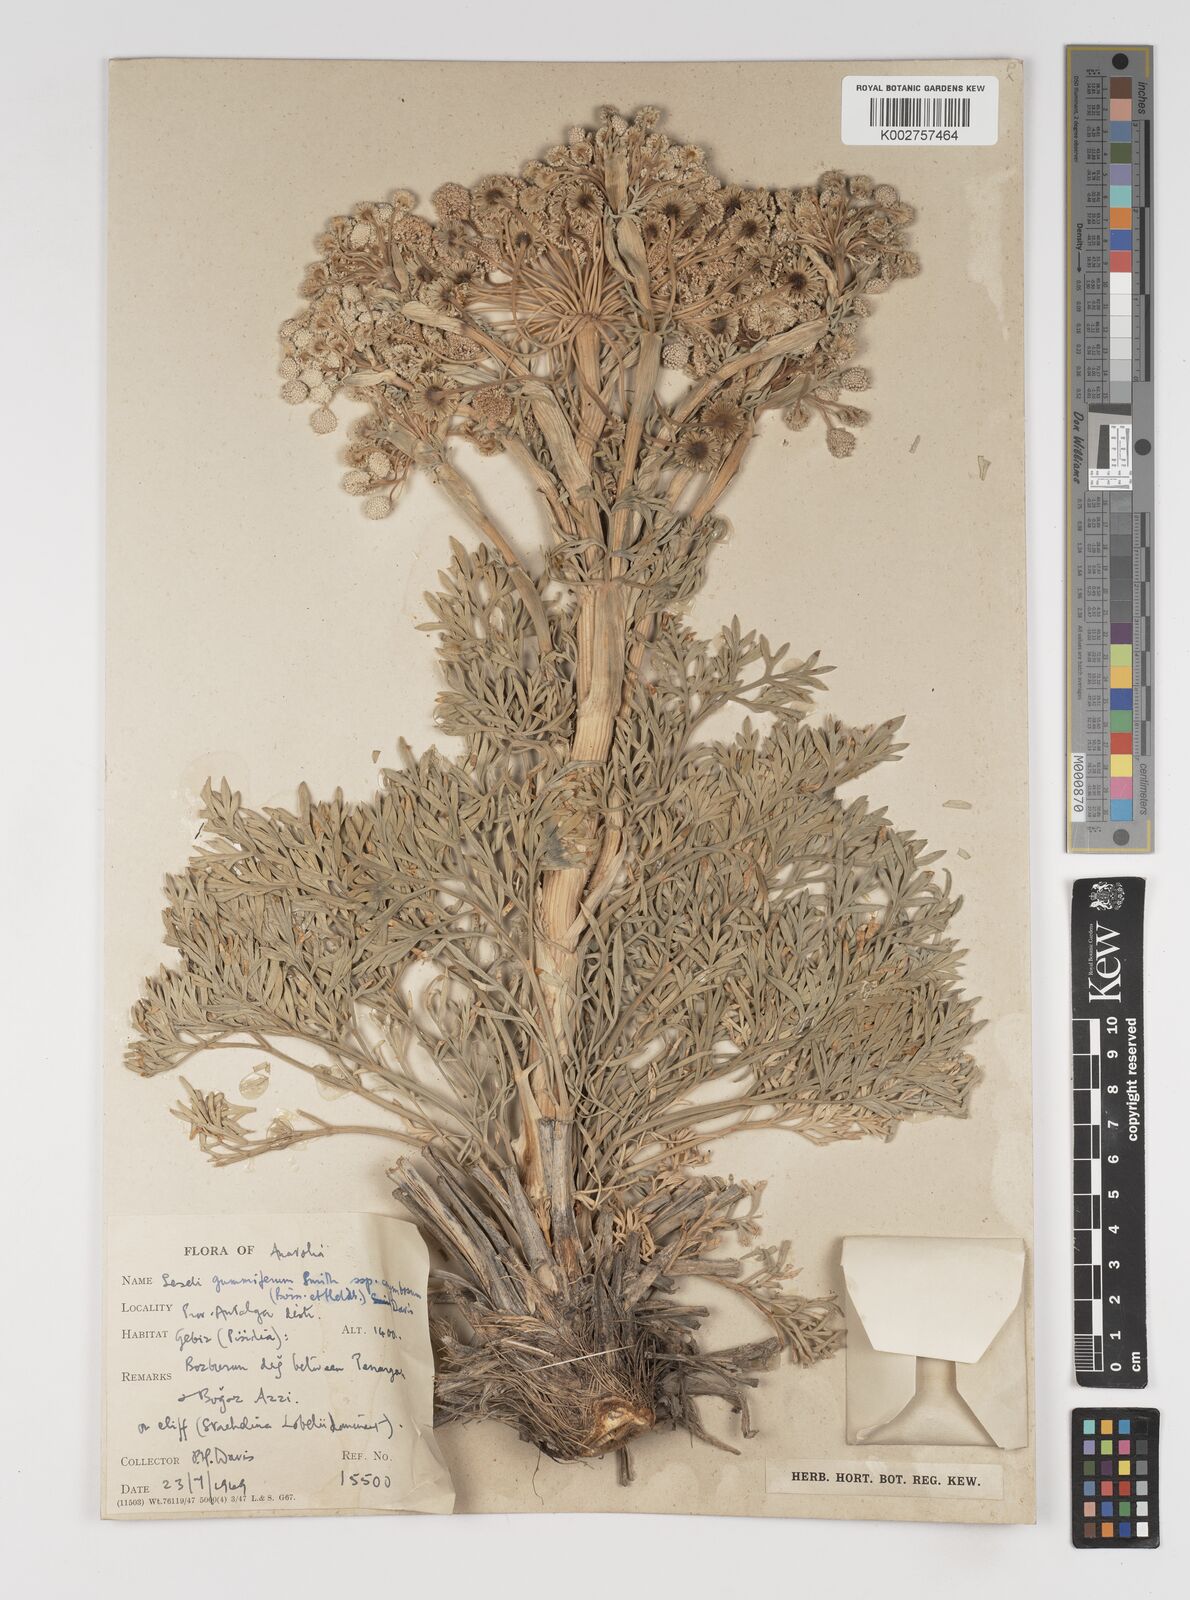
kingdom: Plantae
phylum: Tracheophyta
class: Magnoliopsida
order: Apiales
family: Apiaceae
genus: Seseli
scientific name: Seseli gummiferum
